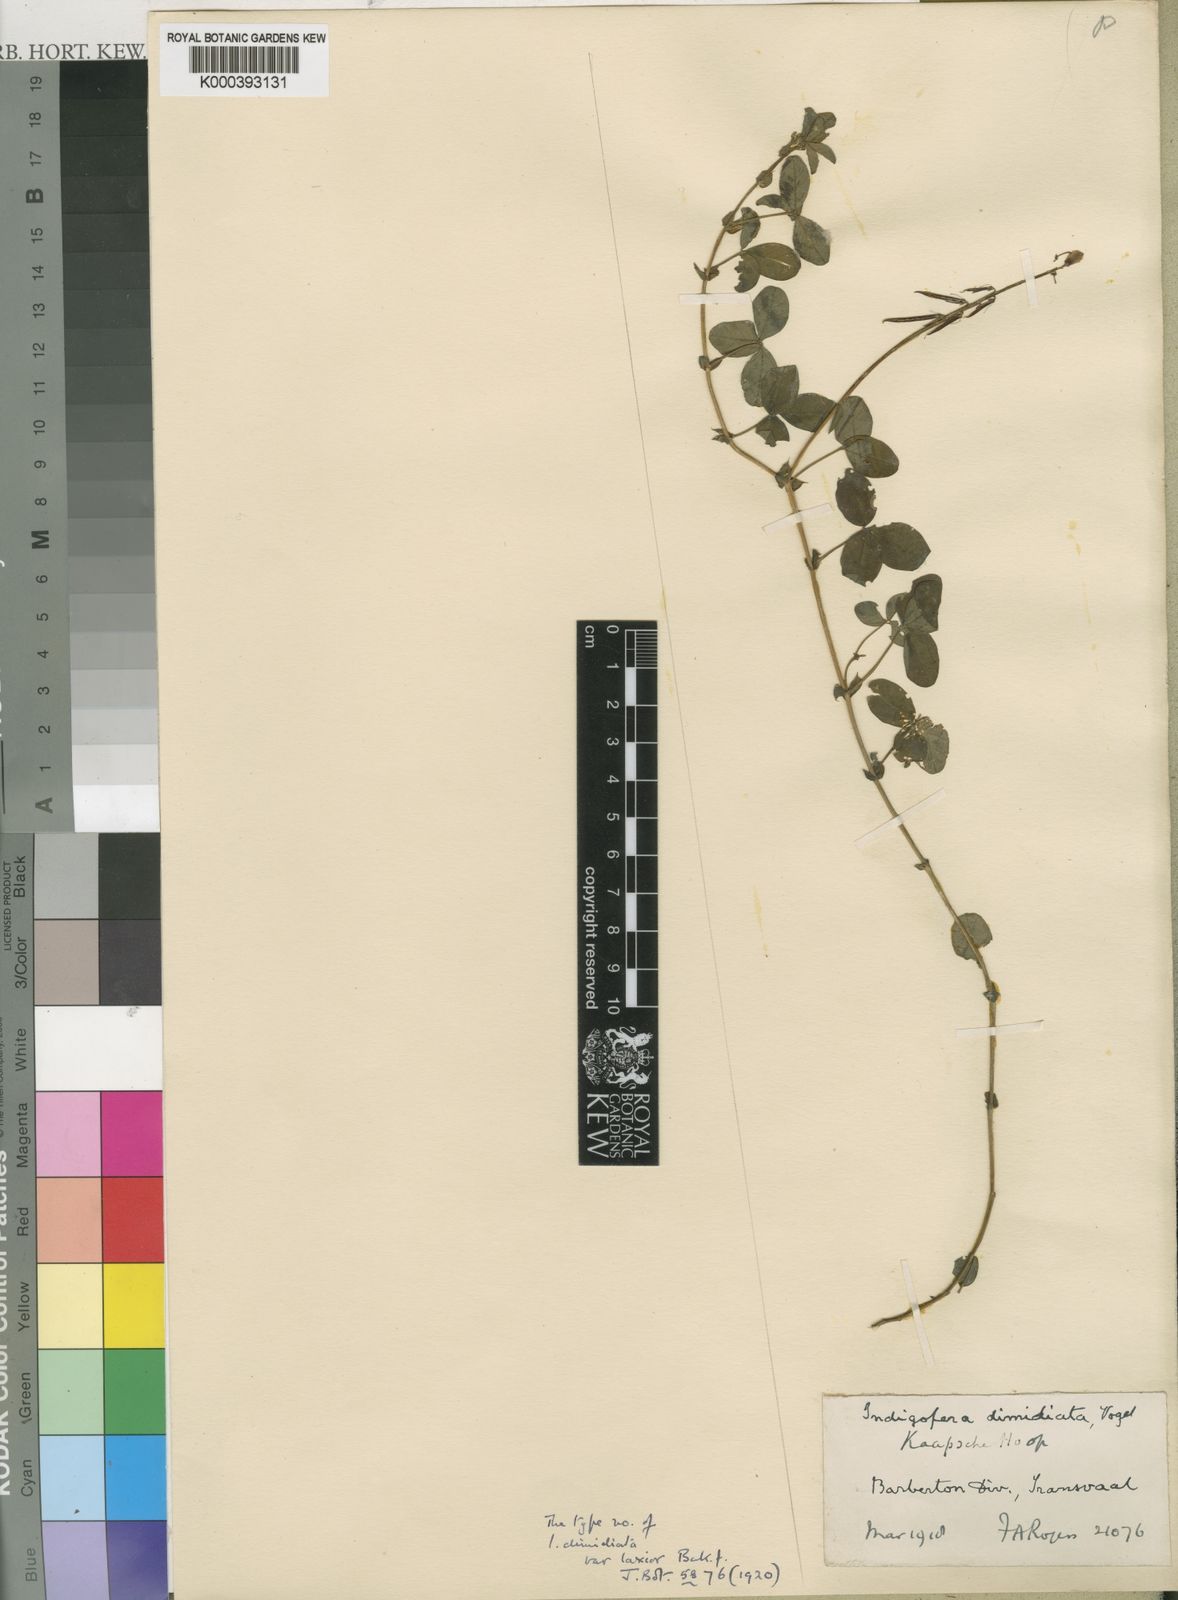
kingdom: Plantae
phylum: Tracheophyta
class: Magnoliopsida
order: Fabales
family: Fabaceae
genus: Indigofera
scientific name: Indigofera dimidiata
